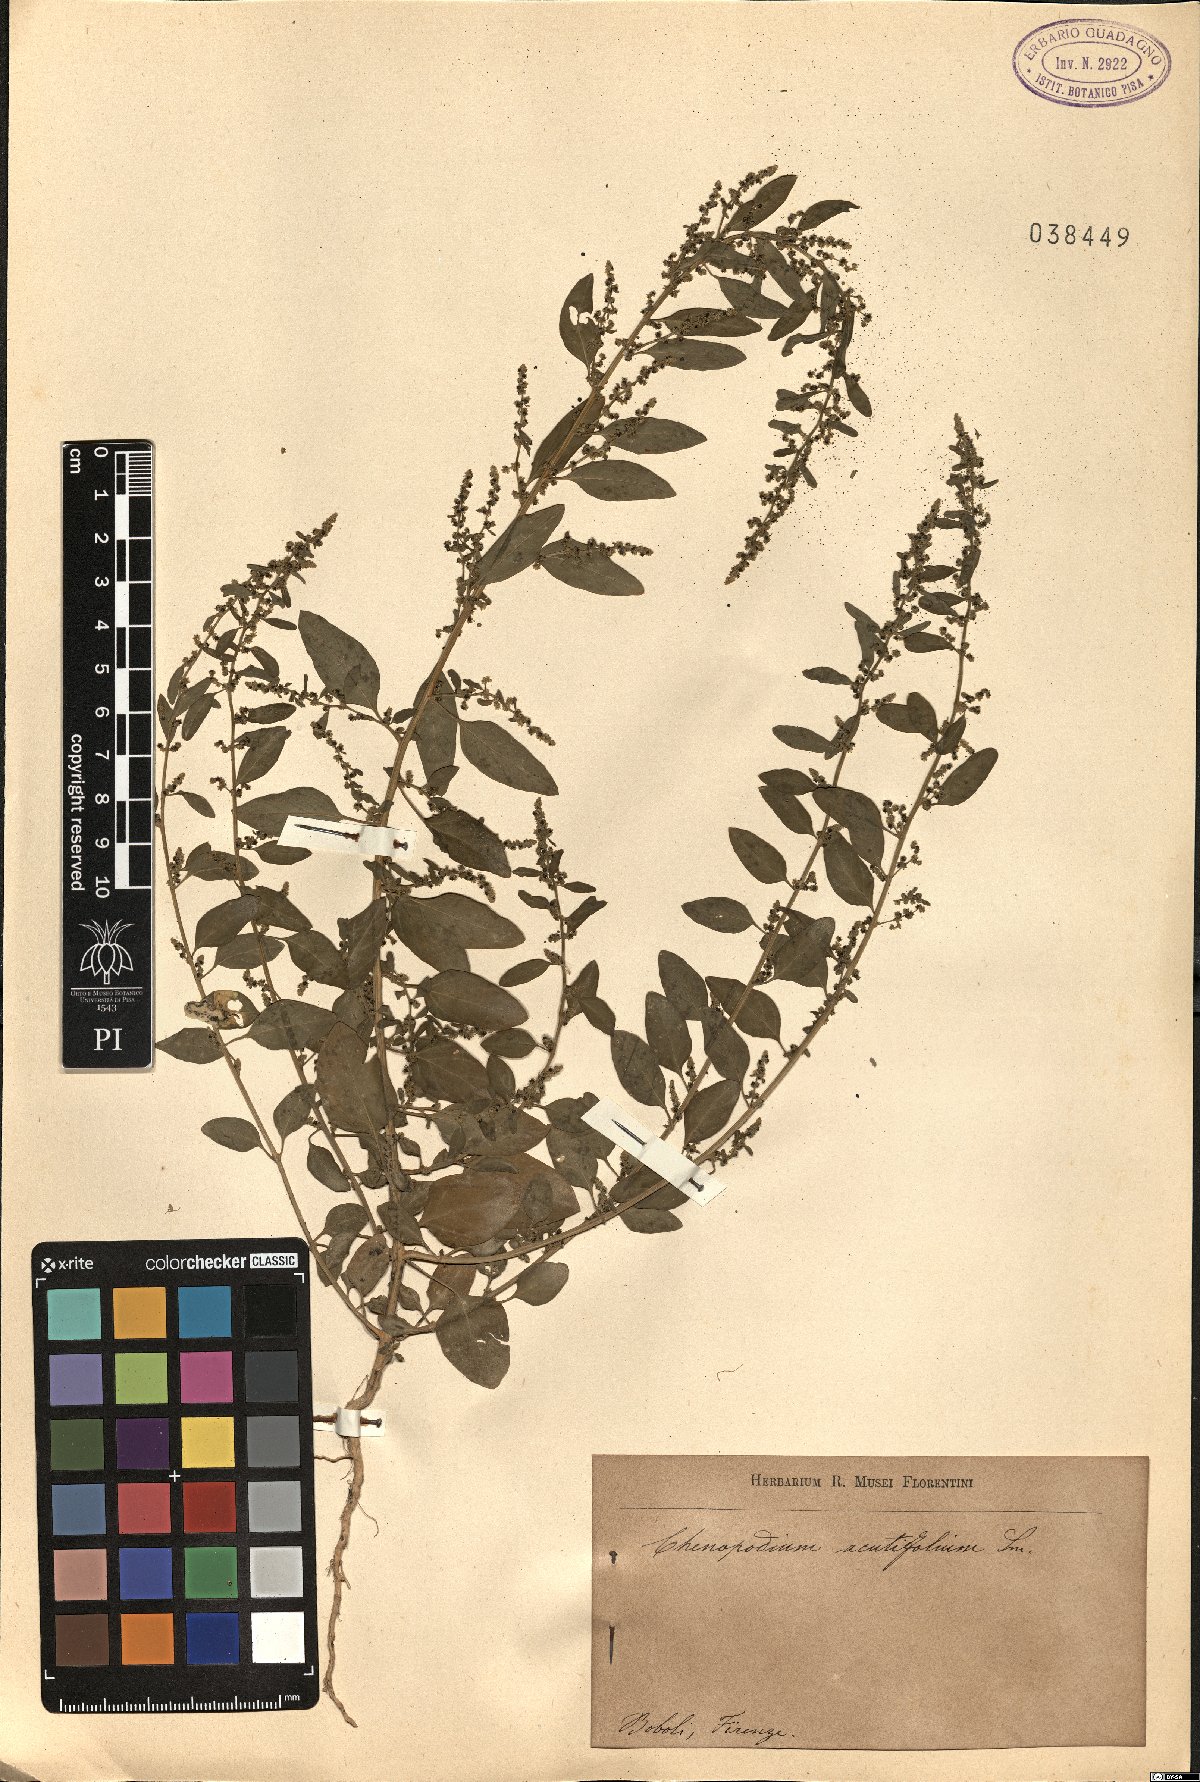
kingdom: Plantae
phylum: Tracheophyta
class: Magnoliopsida
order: Caryophyllales
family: Amaranthaceae
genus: Lipandra
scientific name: Lipandra polysperma
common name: Many-seed goosefoot
